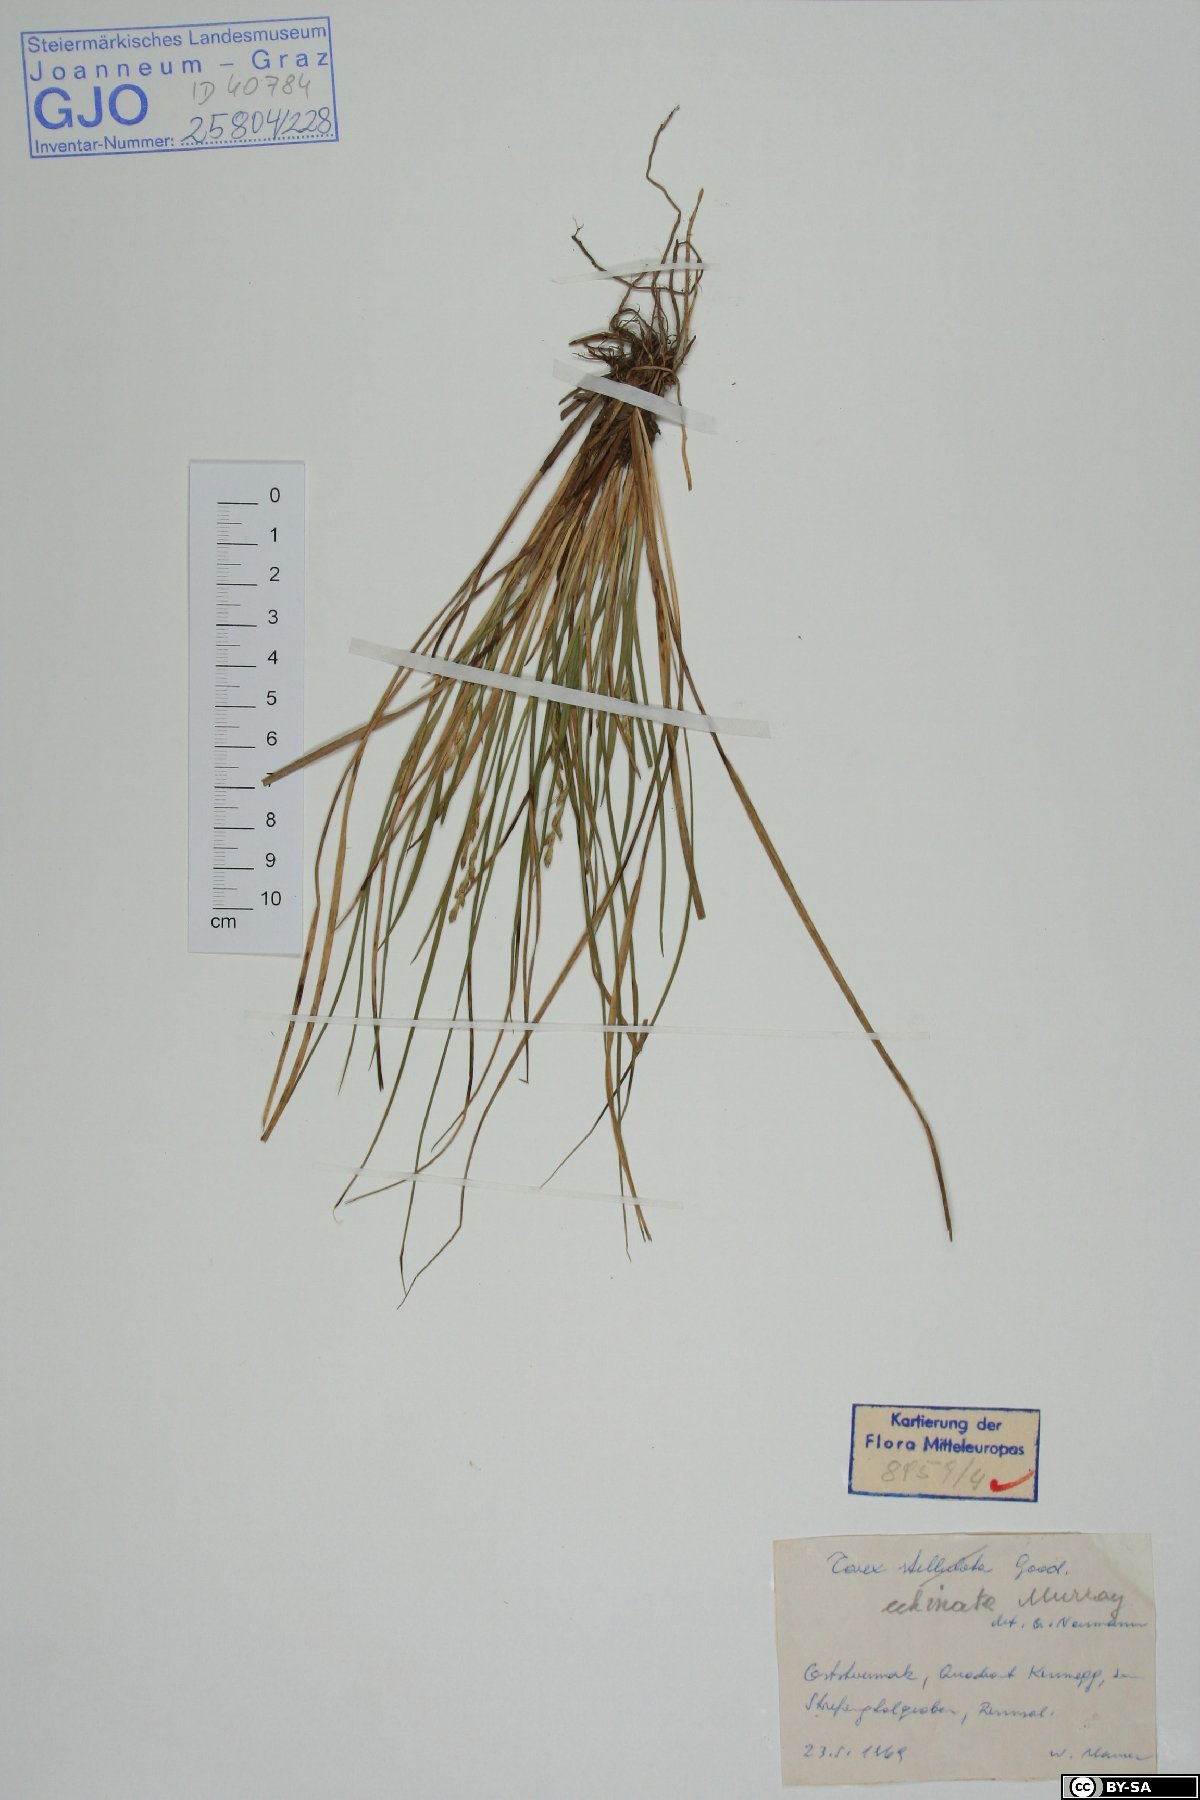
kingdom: Plantae
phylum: Tracheophyta
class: Liliopsida
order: Poales
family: Cyperaceae
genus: Carex
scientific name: Carex echinata
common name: Star sedge
